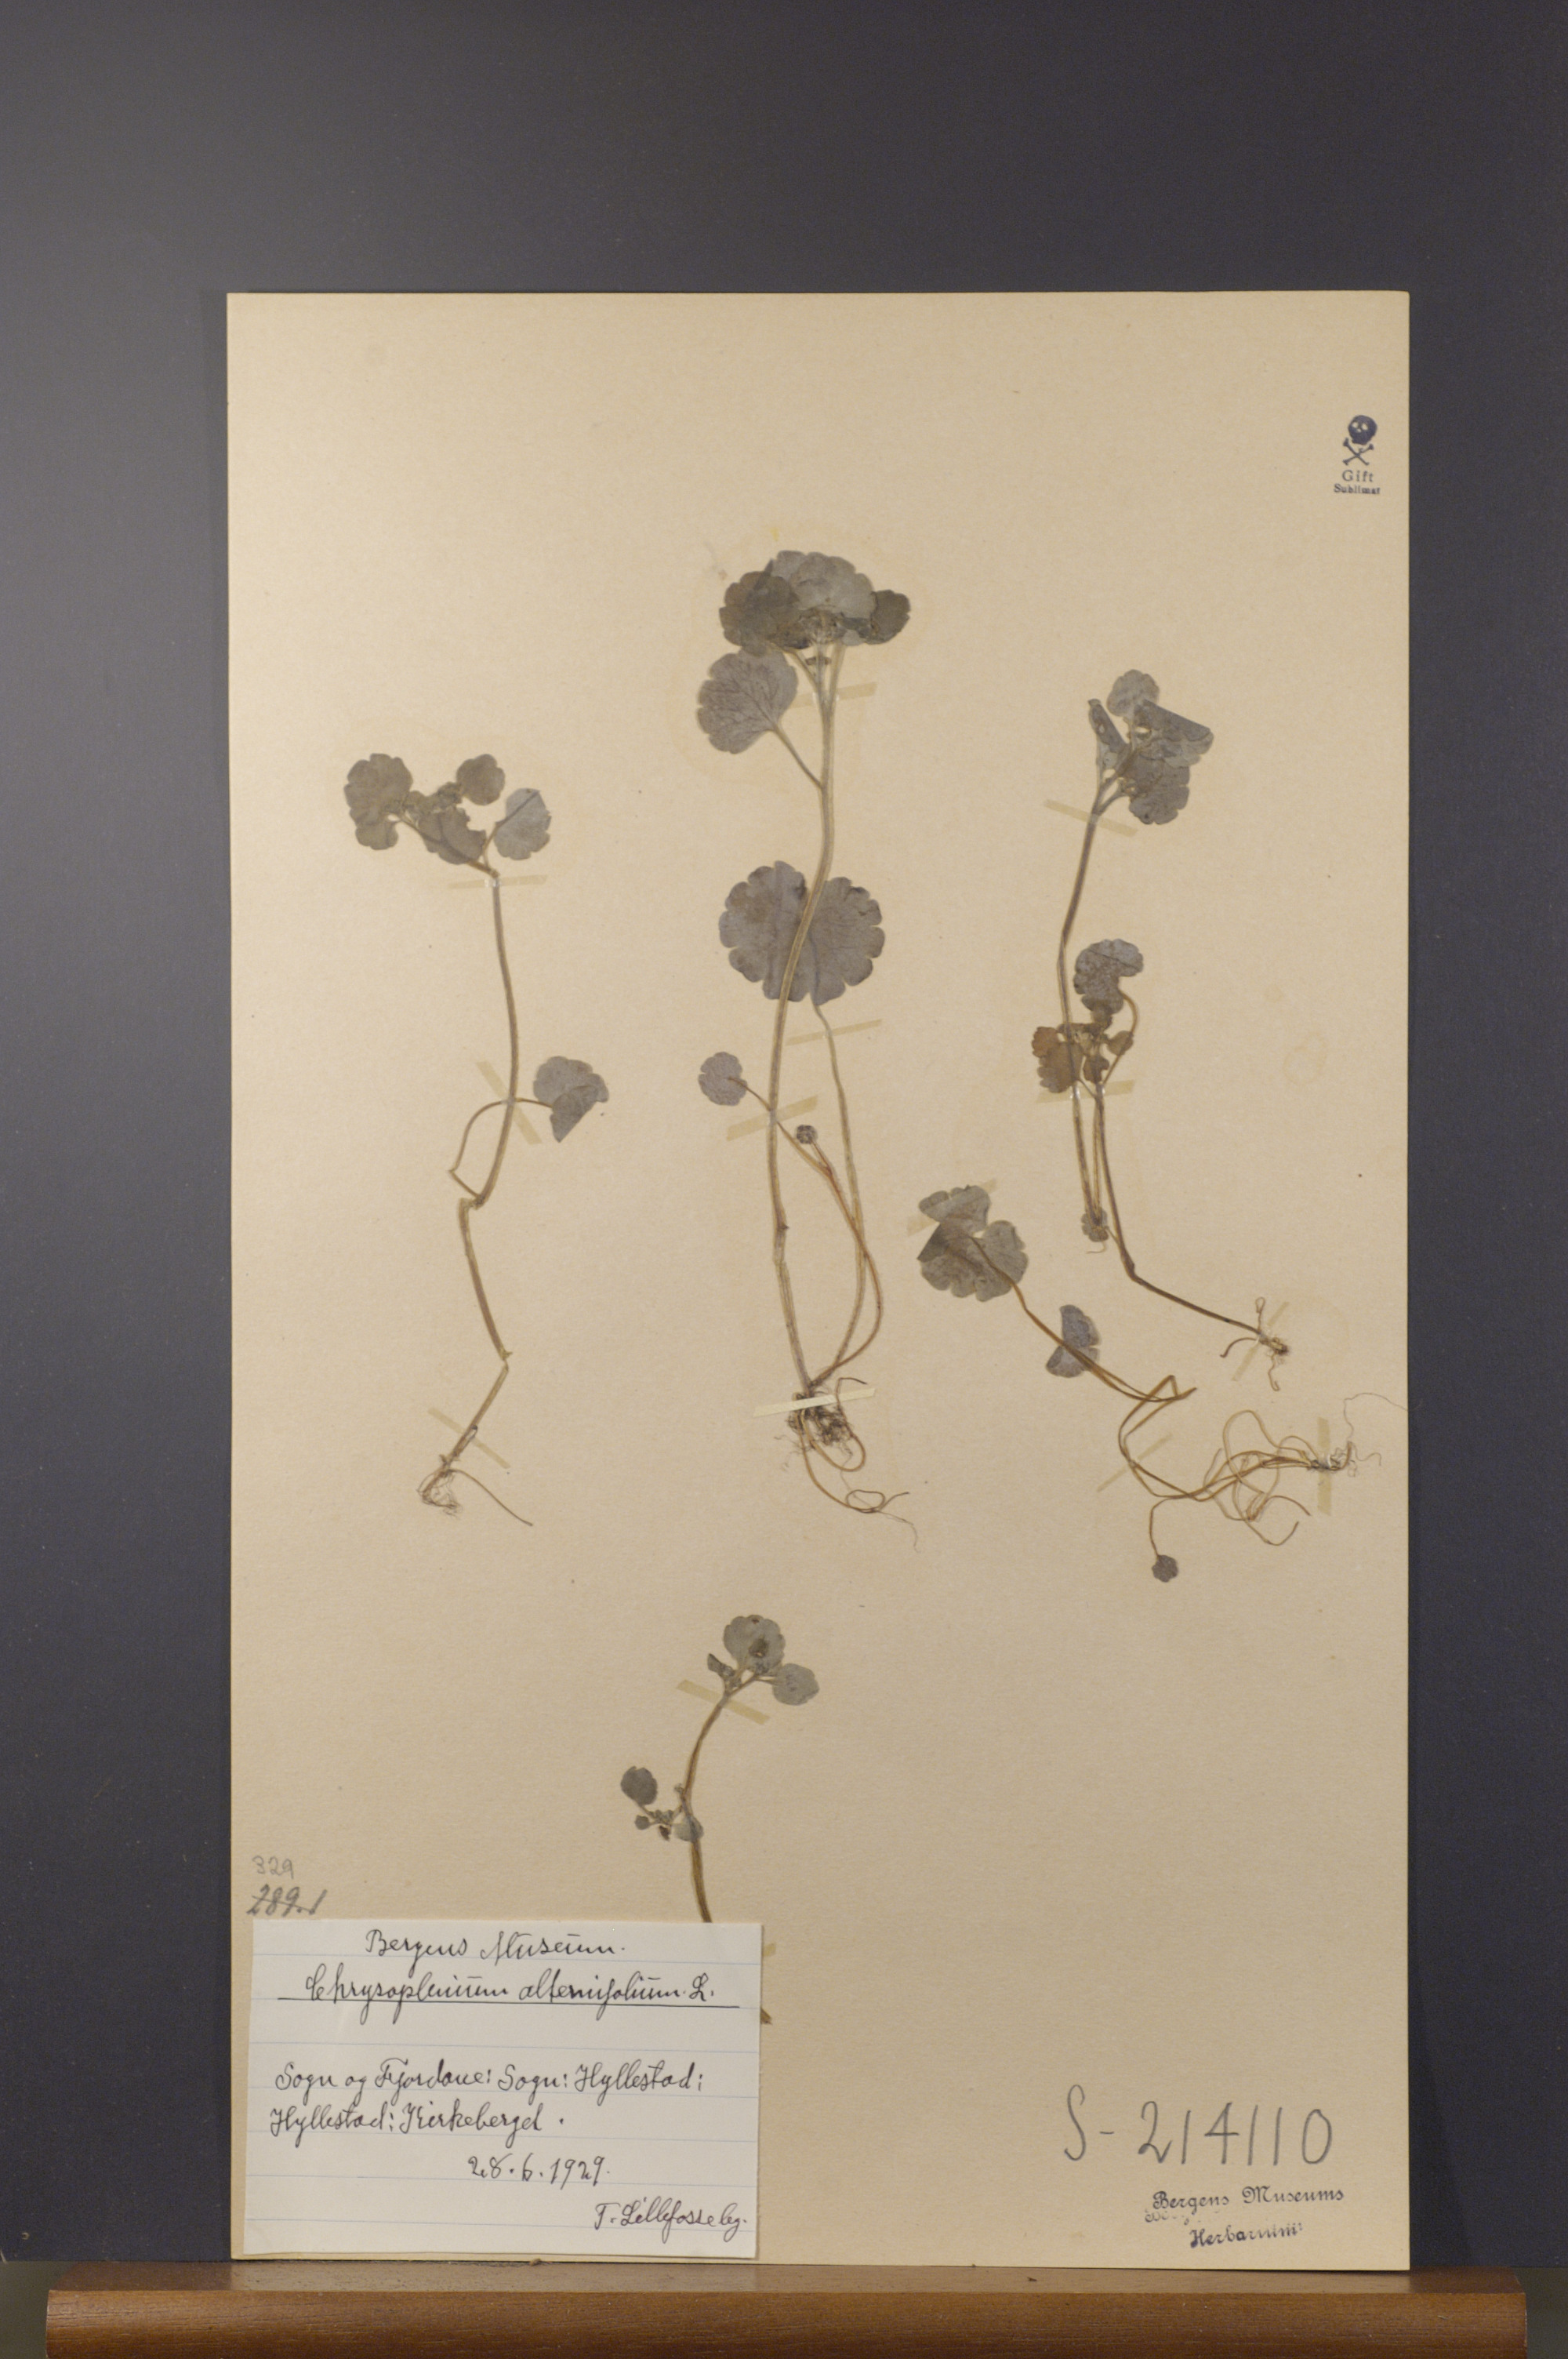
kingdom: Plantae
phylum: Tracheophyta
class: Magnoliopsida
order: Saxifragales
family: Saxifragaceae
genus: Chrysosplenium
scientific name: Chrysosplenium alternifolium
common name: Alternate-leaved golden-saxifrage
